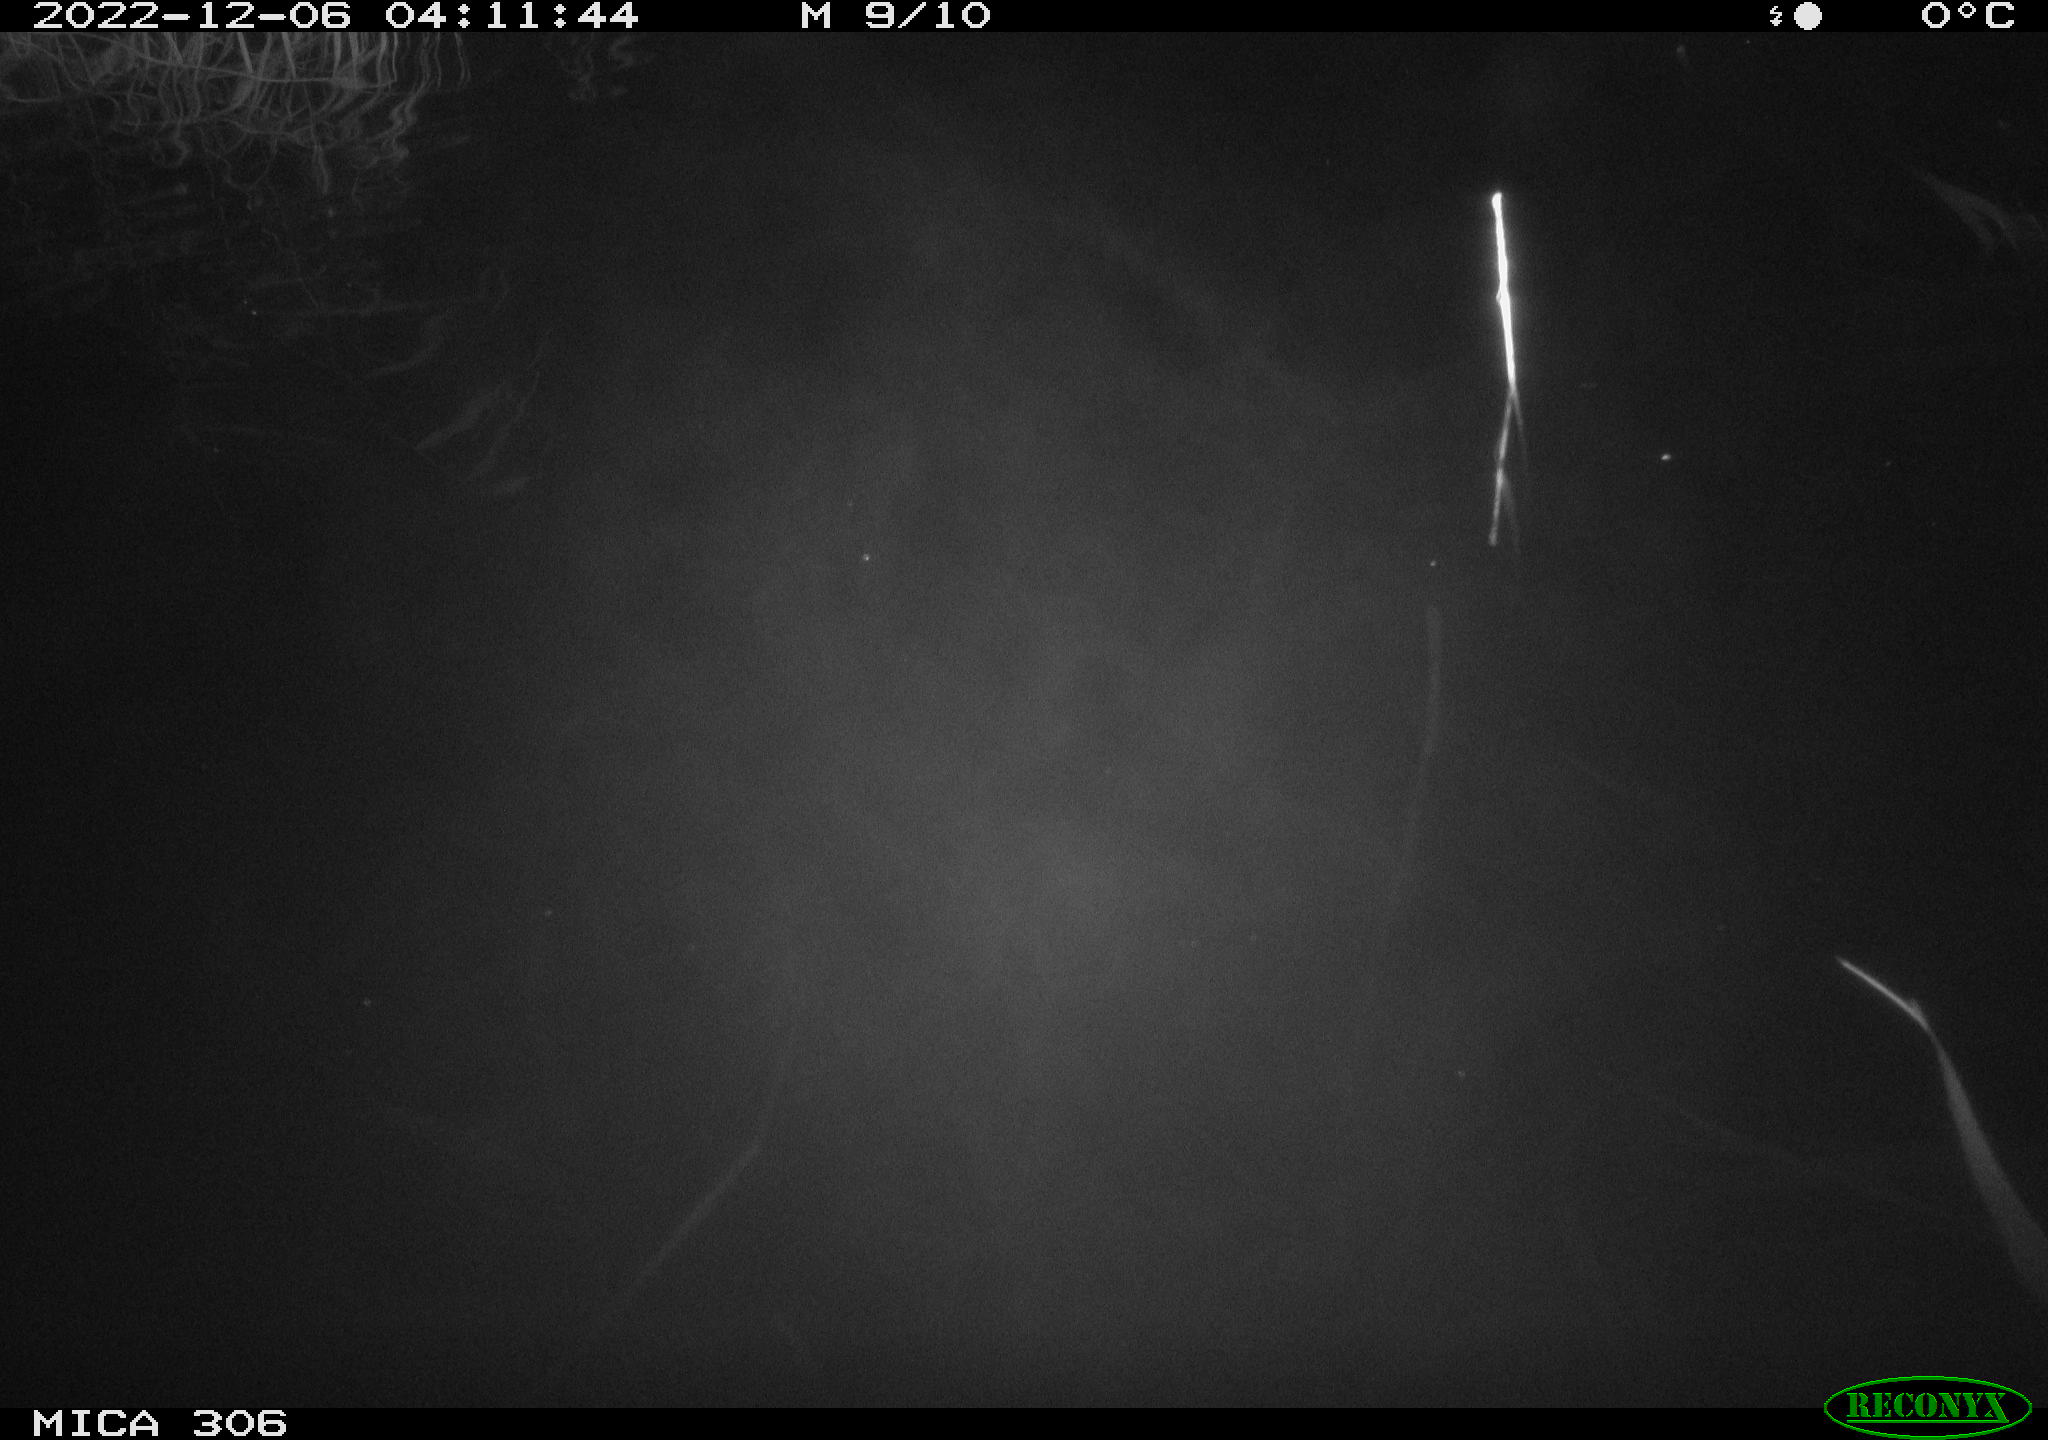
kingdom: Animalia
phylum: Chordata
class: Mammalia
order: Rodentia
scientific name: Rodentia
